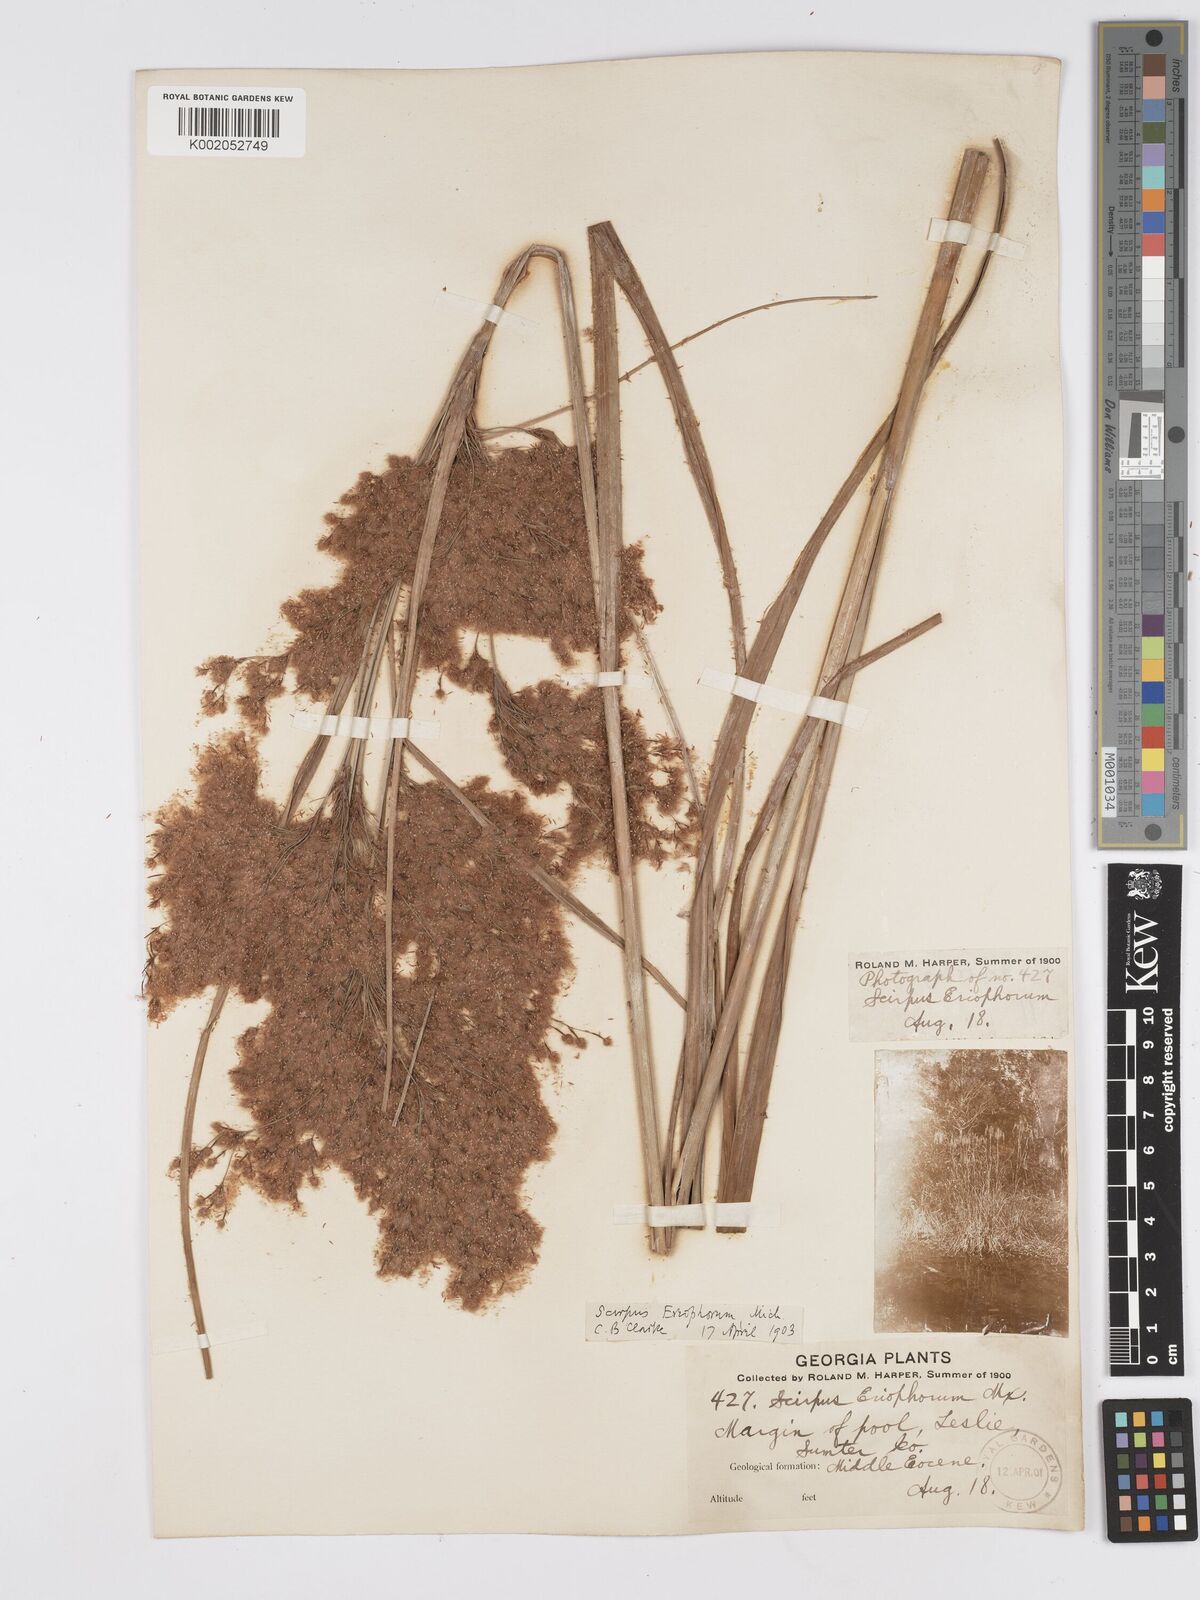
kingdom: Plantae
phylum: Tracheophyta
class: Liliopsida
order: Poales
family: Cyperaceae
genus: Scirpus
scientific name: Scirpus cyperinus
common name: Black-sheathed bulrush
